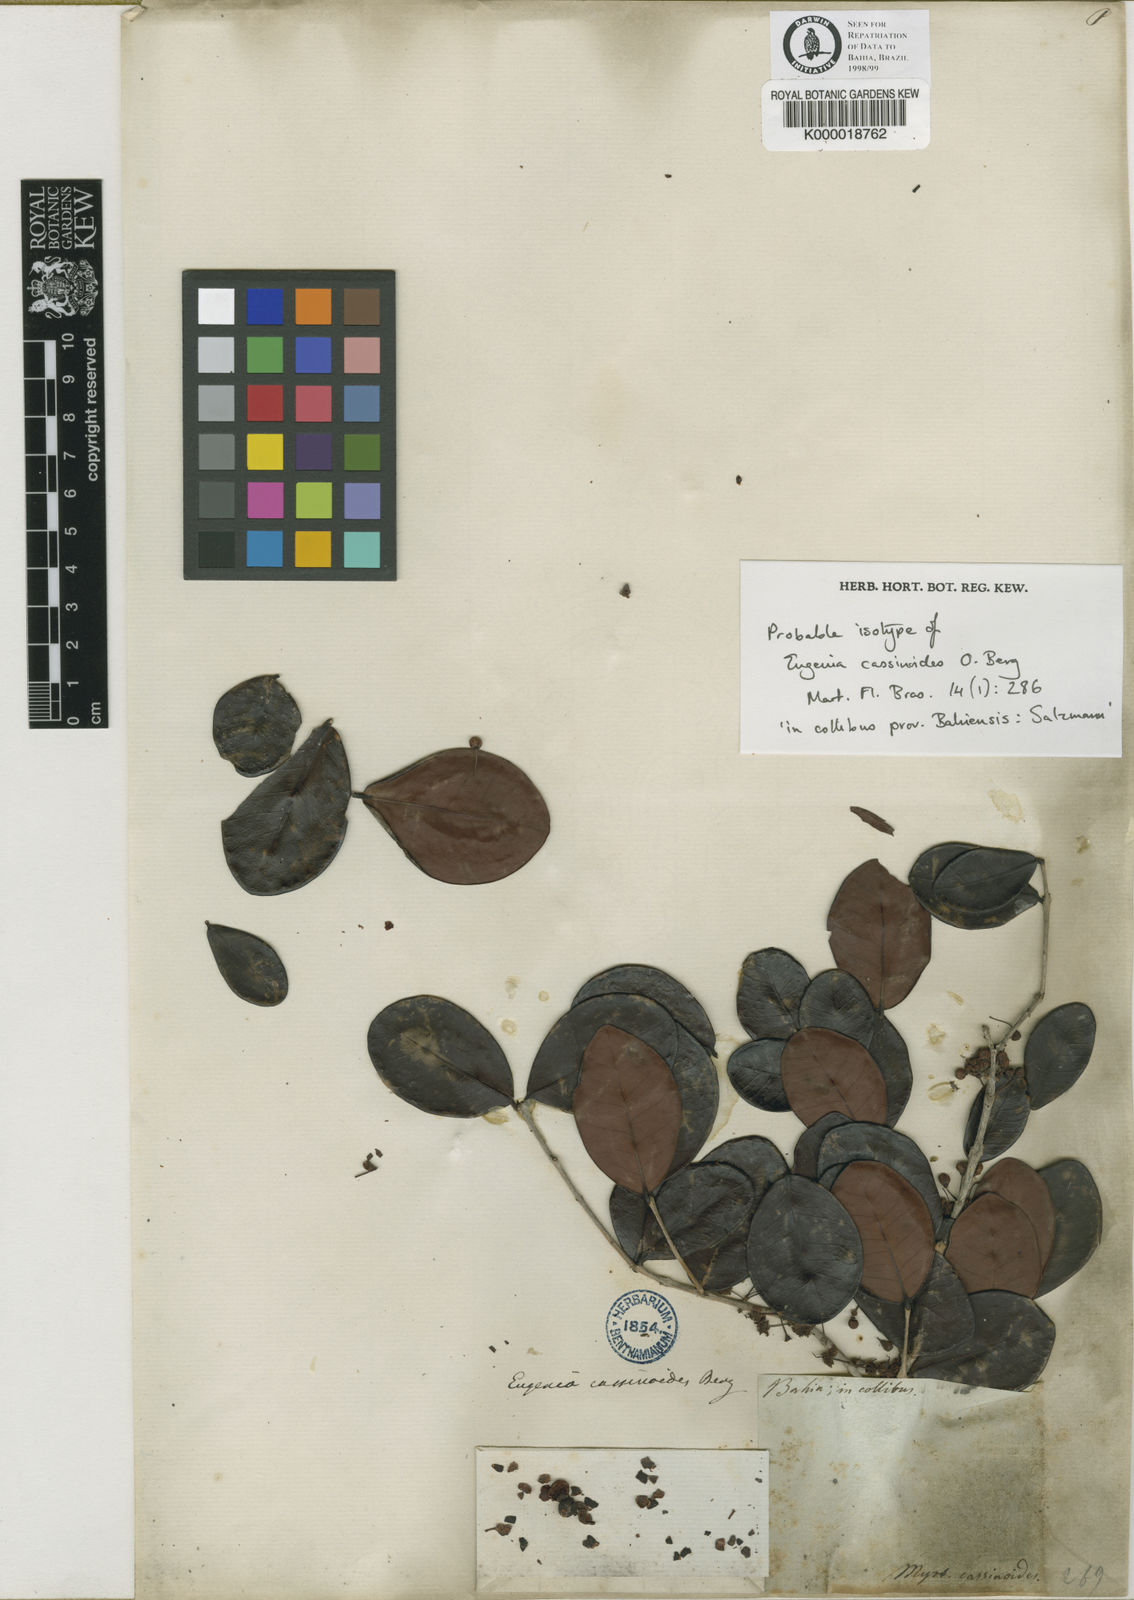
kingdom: Plantae
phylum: Tracheophyta
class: Magnoliopsida
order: Myrtales
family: Myrtaceae
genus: Eugenia
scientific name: Eugenia astringens
